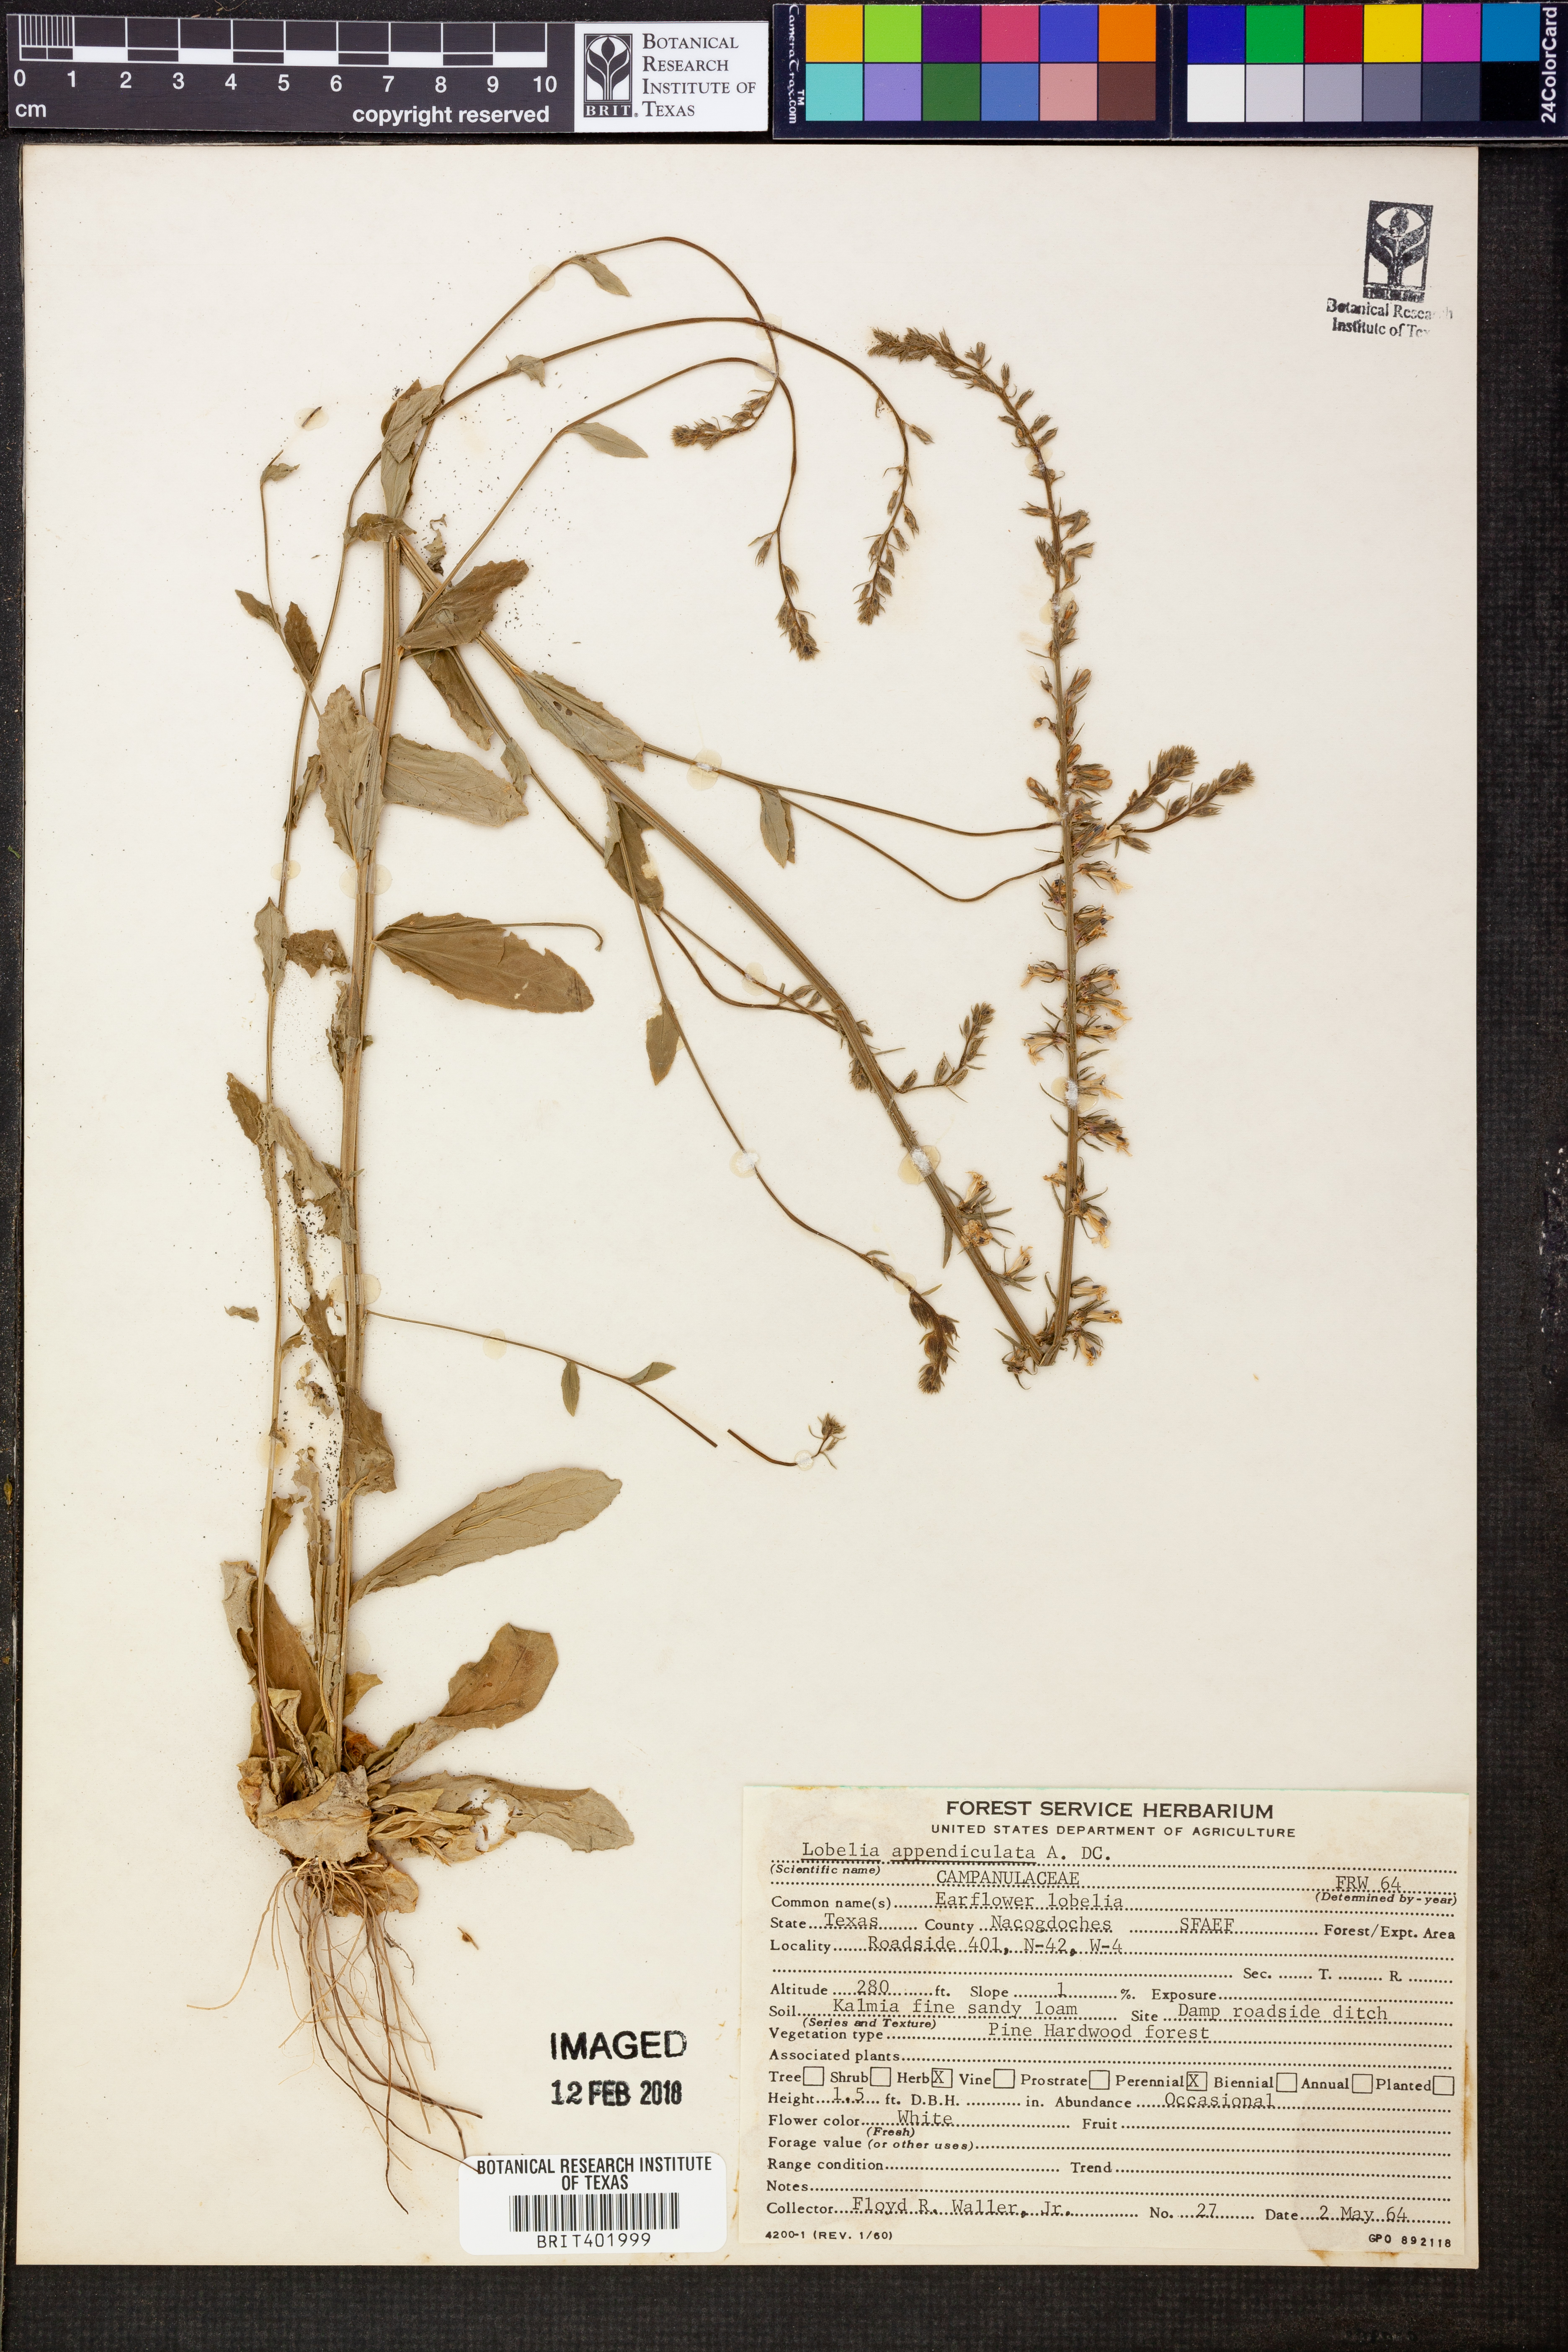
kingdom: Plantae
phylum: Tracheophyta
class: Magnoliopsida
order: Asterales
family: Campanulaceae
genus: Lobelia
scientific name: Lobelia appendiculata
